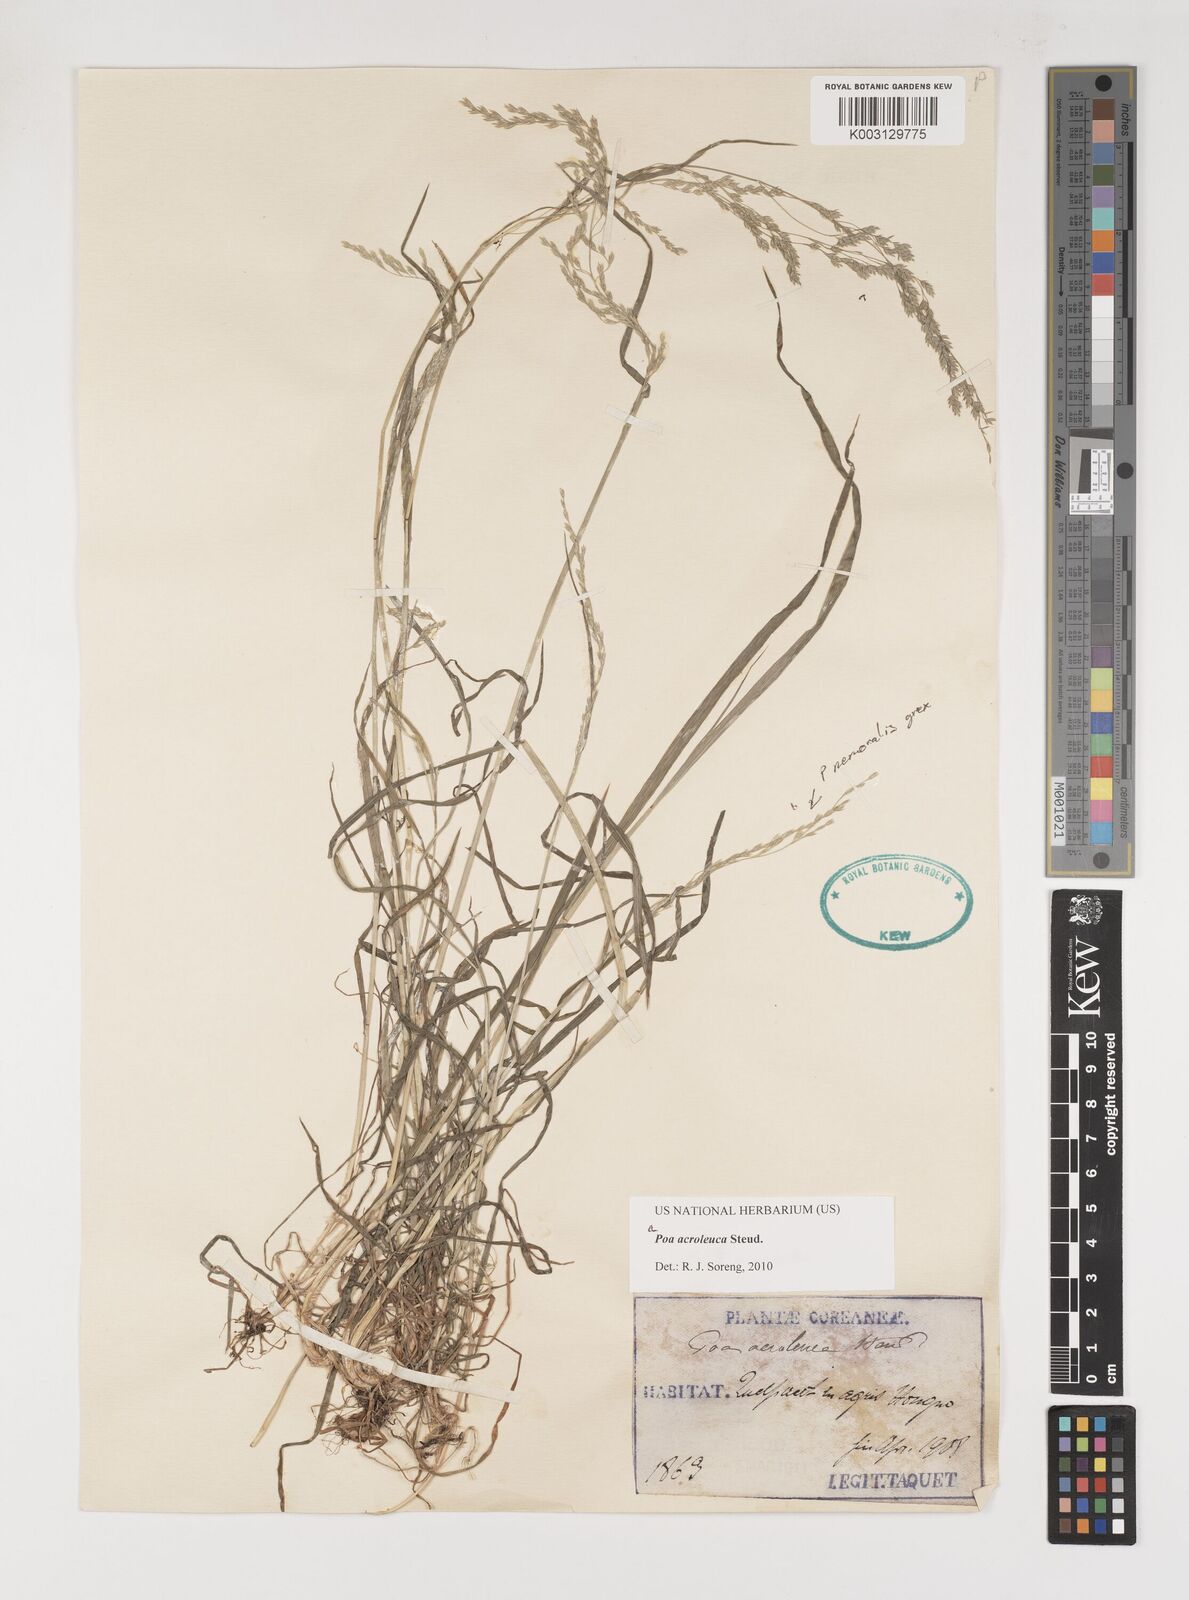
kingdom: Plantae
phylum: Tracheophyta
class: Liliopsida
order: Poales
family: Poaceae
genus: Poa
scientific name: Poa acroleuca
